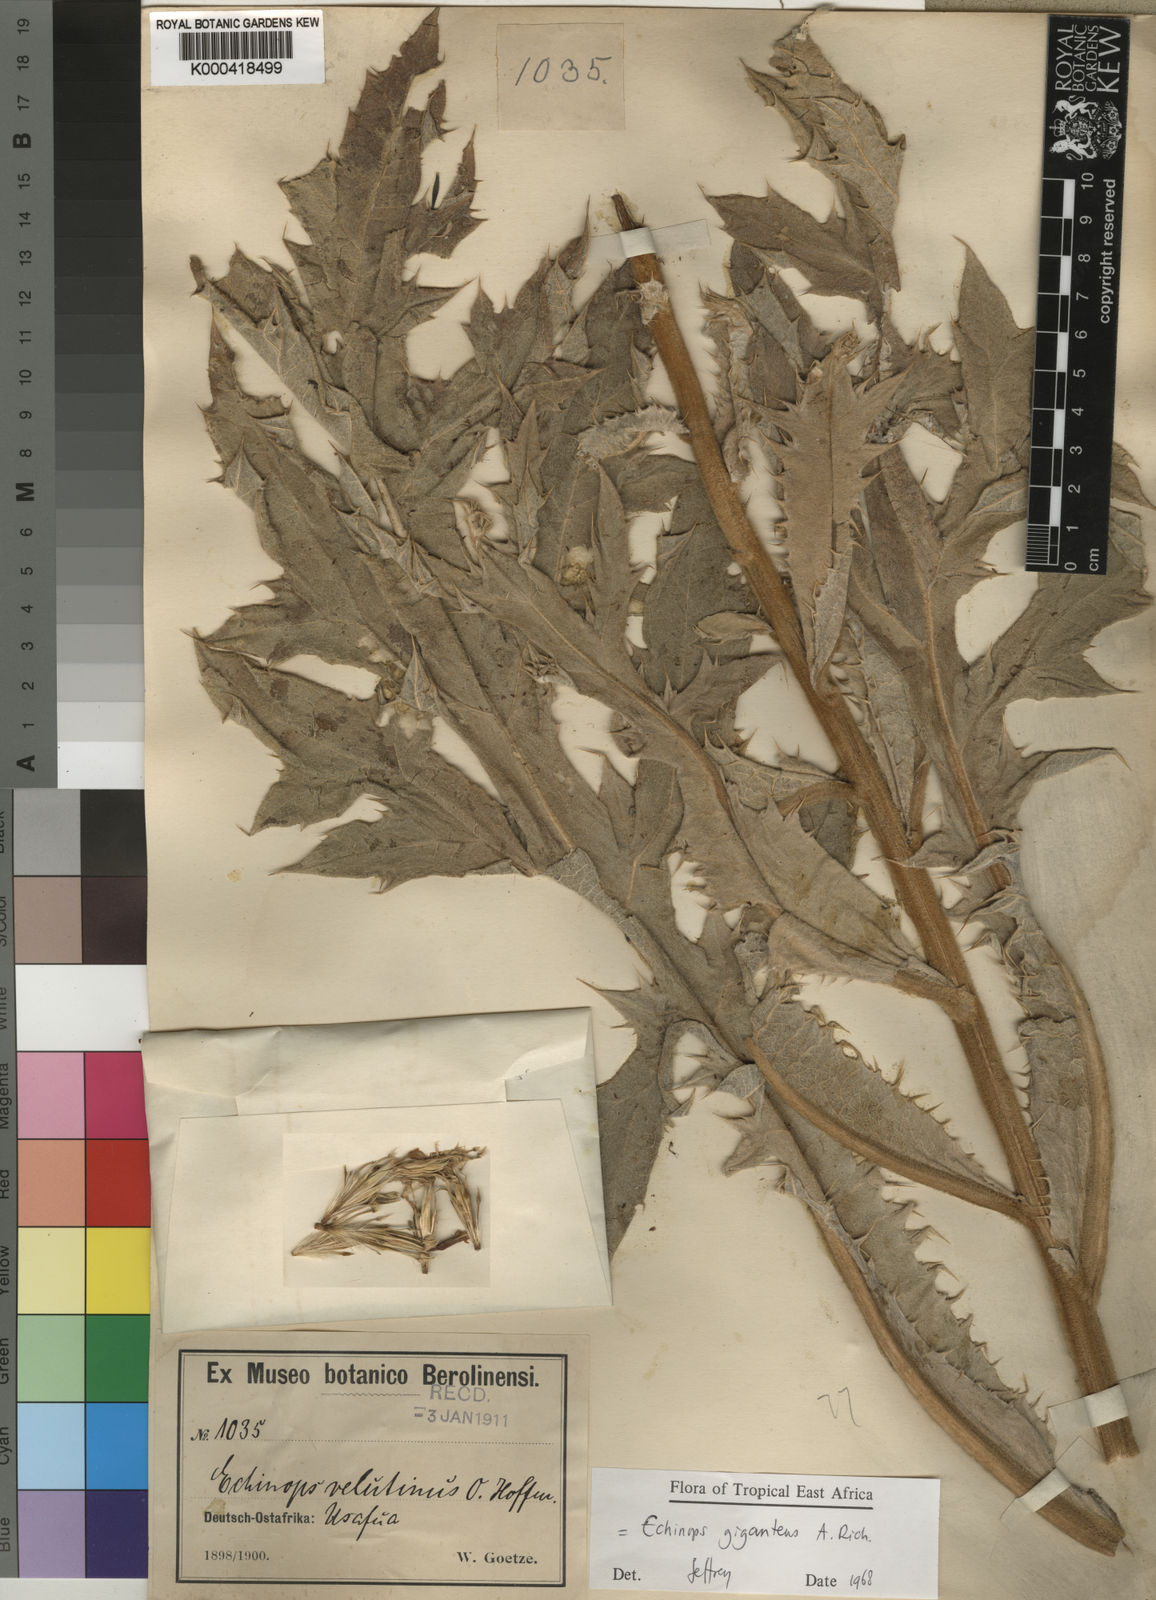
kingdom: Plantae
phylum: Tracheophyta
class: Magnoliopsida
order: Asterales
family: Asteraceae
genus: Echinops
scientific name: Echinops giganteus
